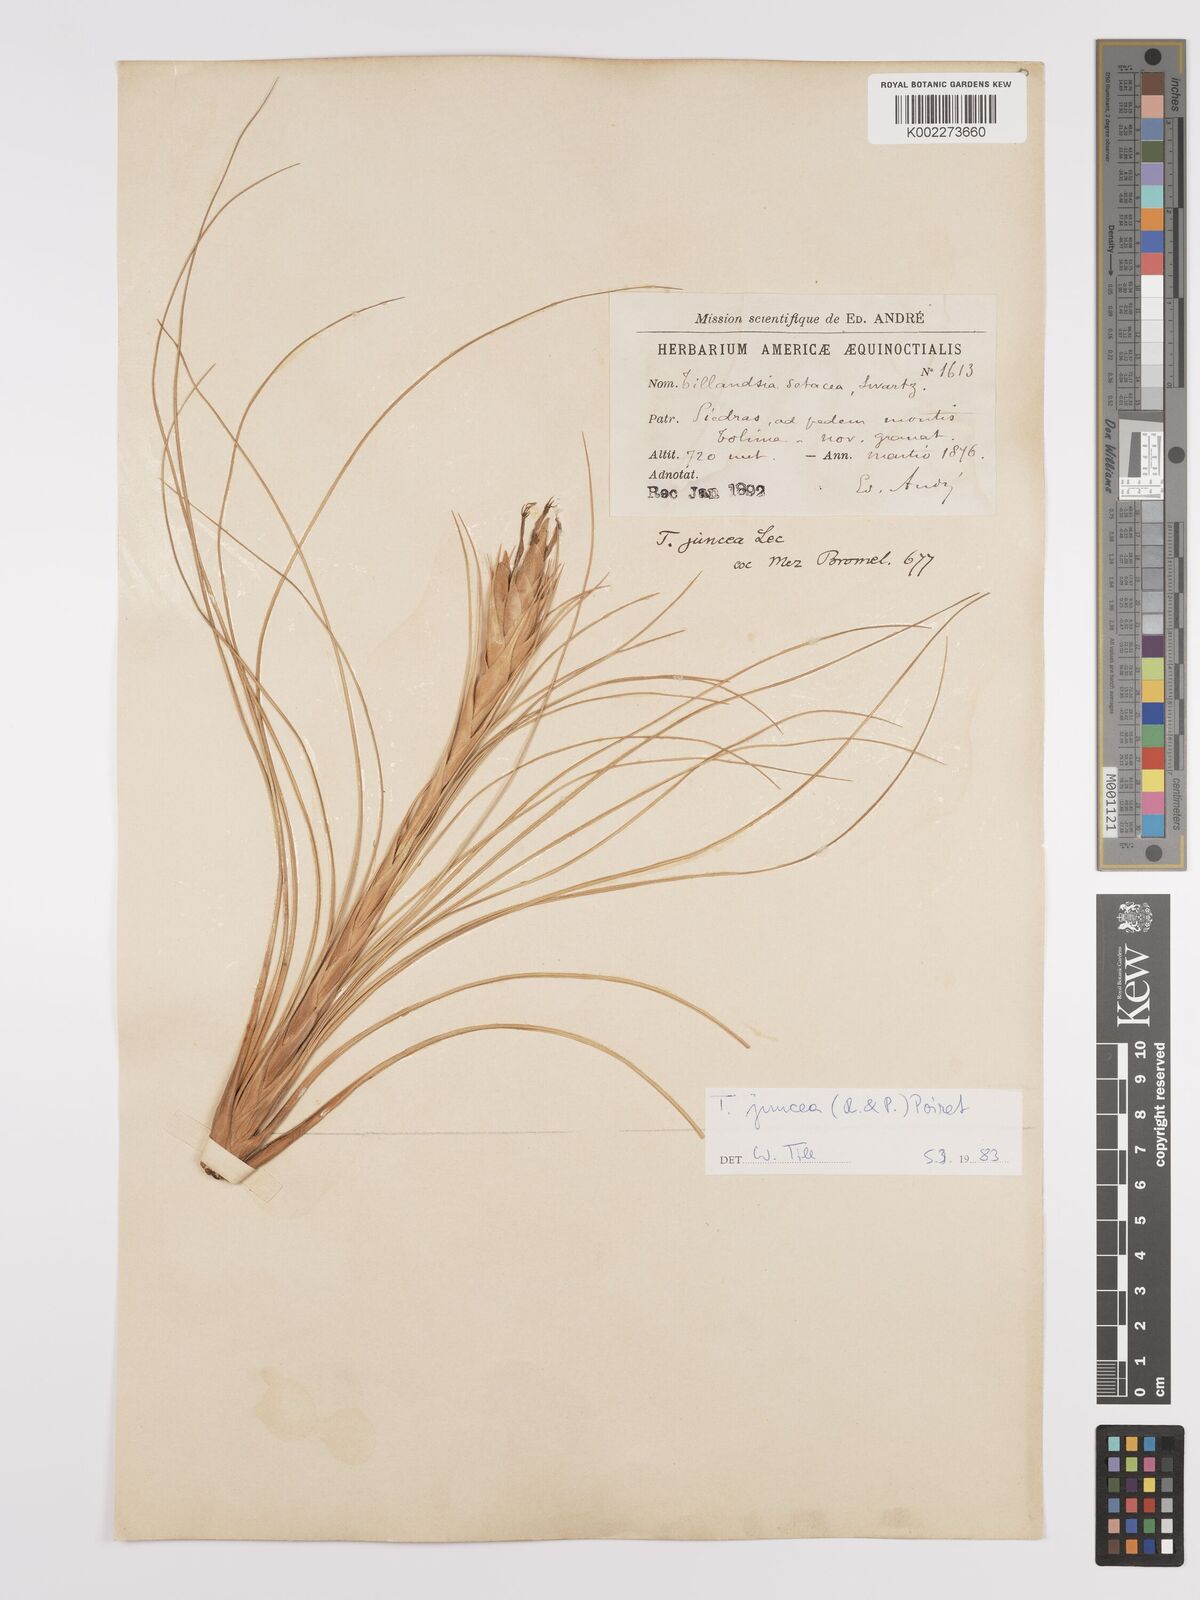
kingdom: Plantae
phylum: Tracheophyta
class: Liliopsida
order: Poales
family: Bromeliaceae
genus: Tillandsia
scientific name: Tillandsia juncea
